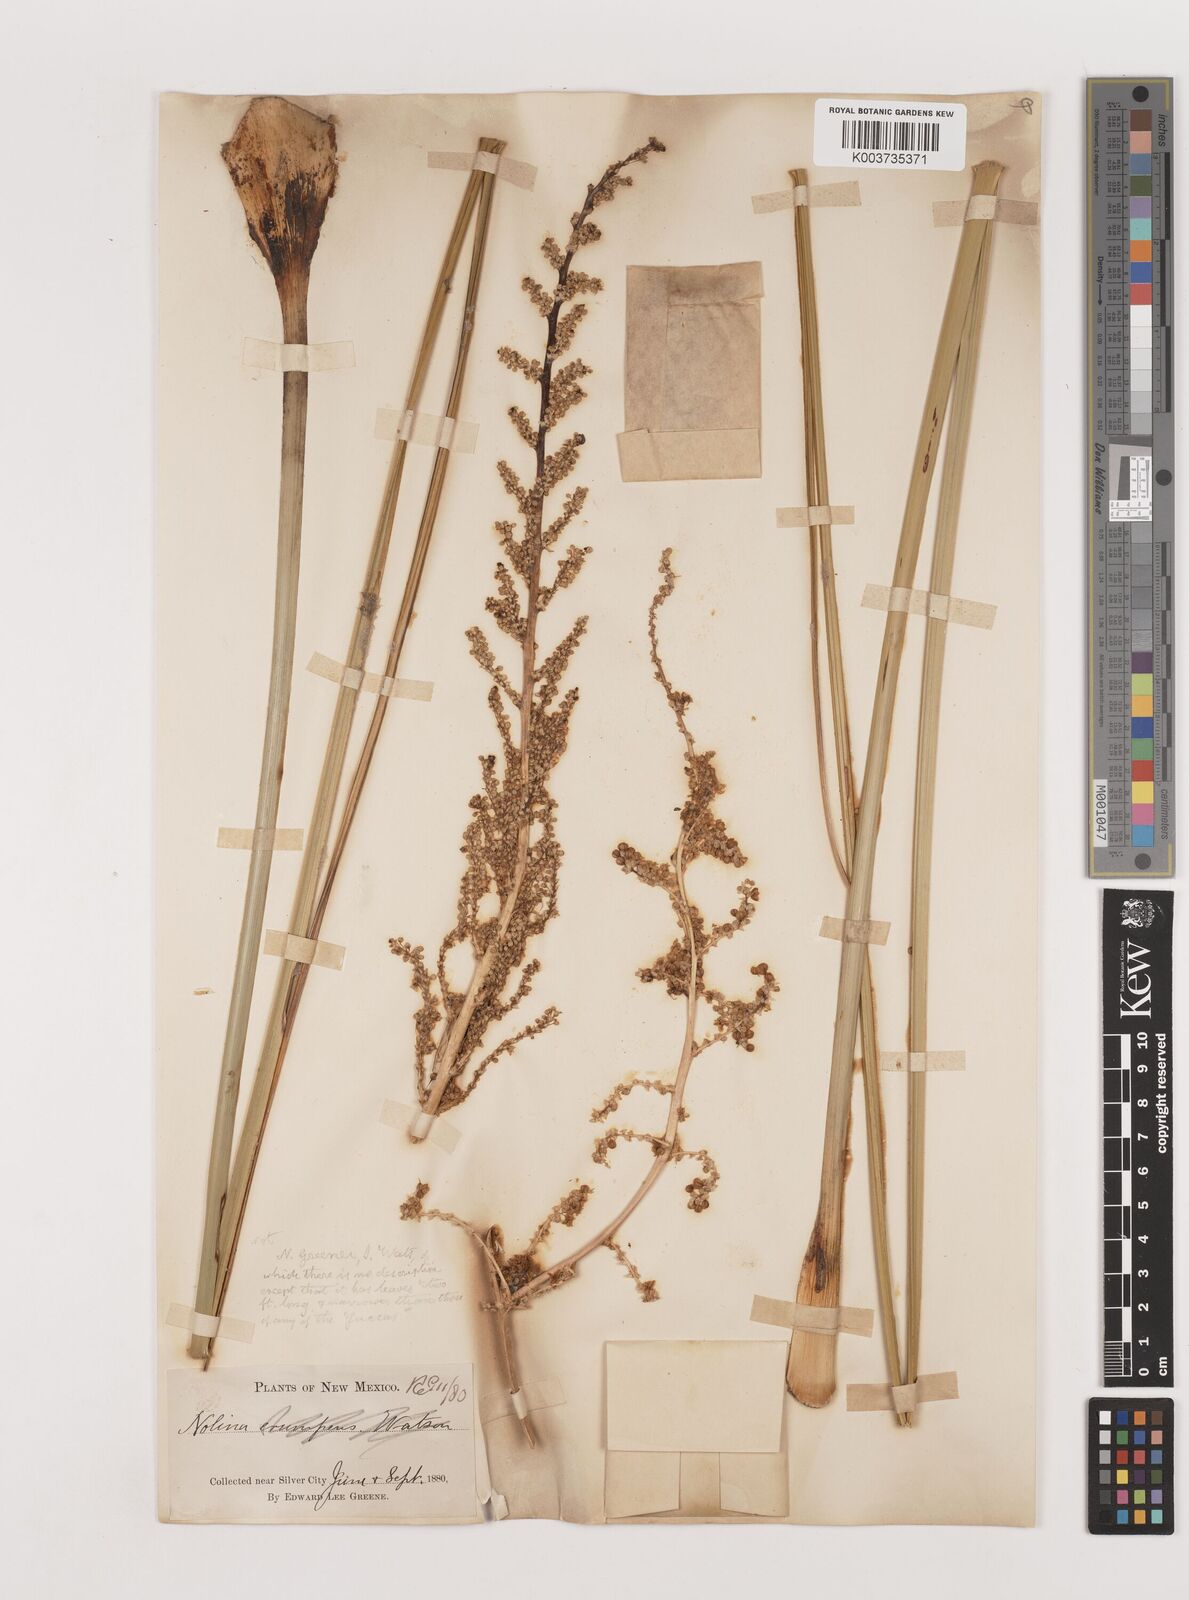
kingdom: Plantae
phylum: Tracheophyta
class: Liliopsida
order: Asparagales
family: Asparagaceae
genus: Nolina
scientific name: Nolina
